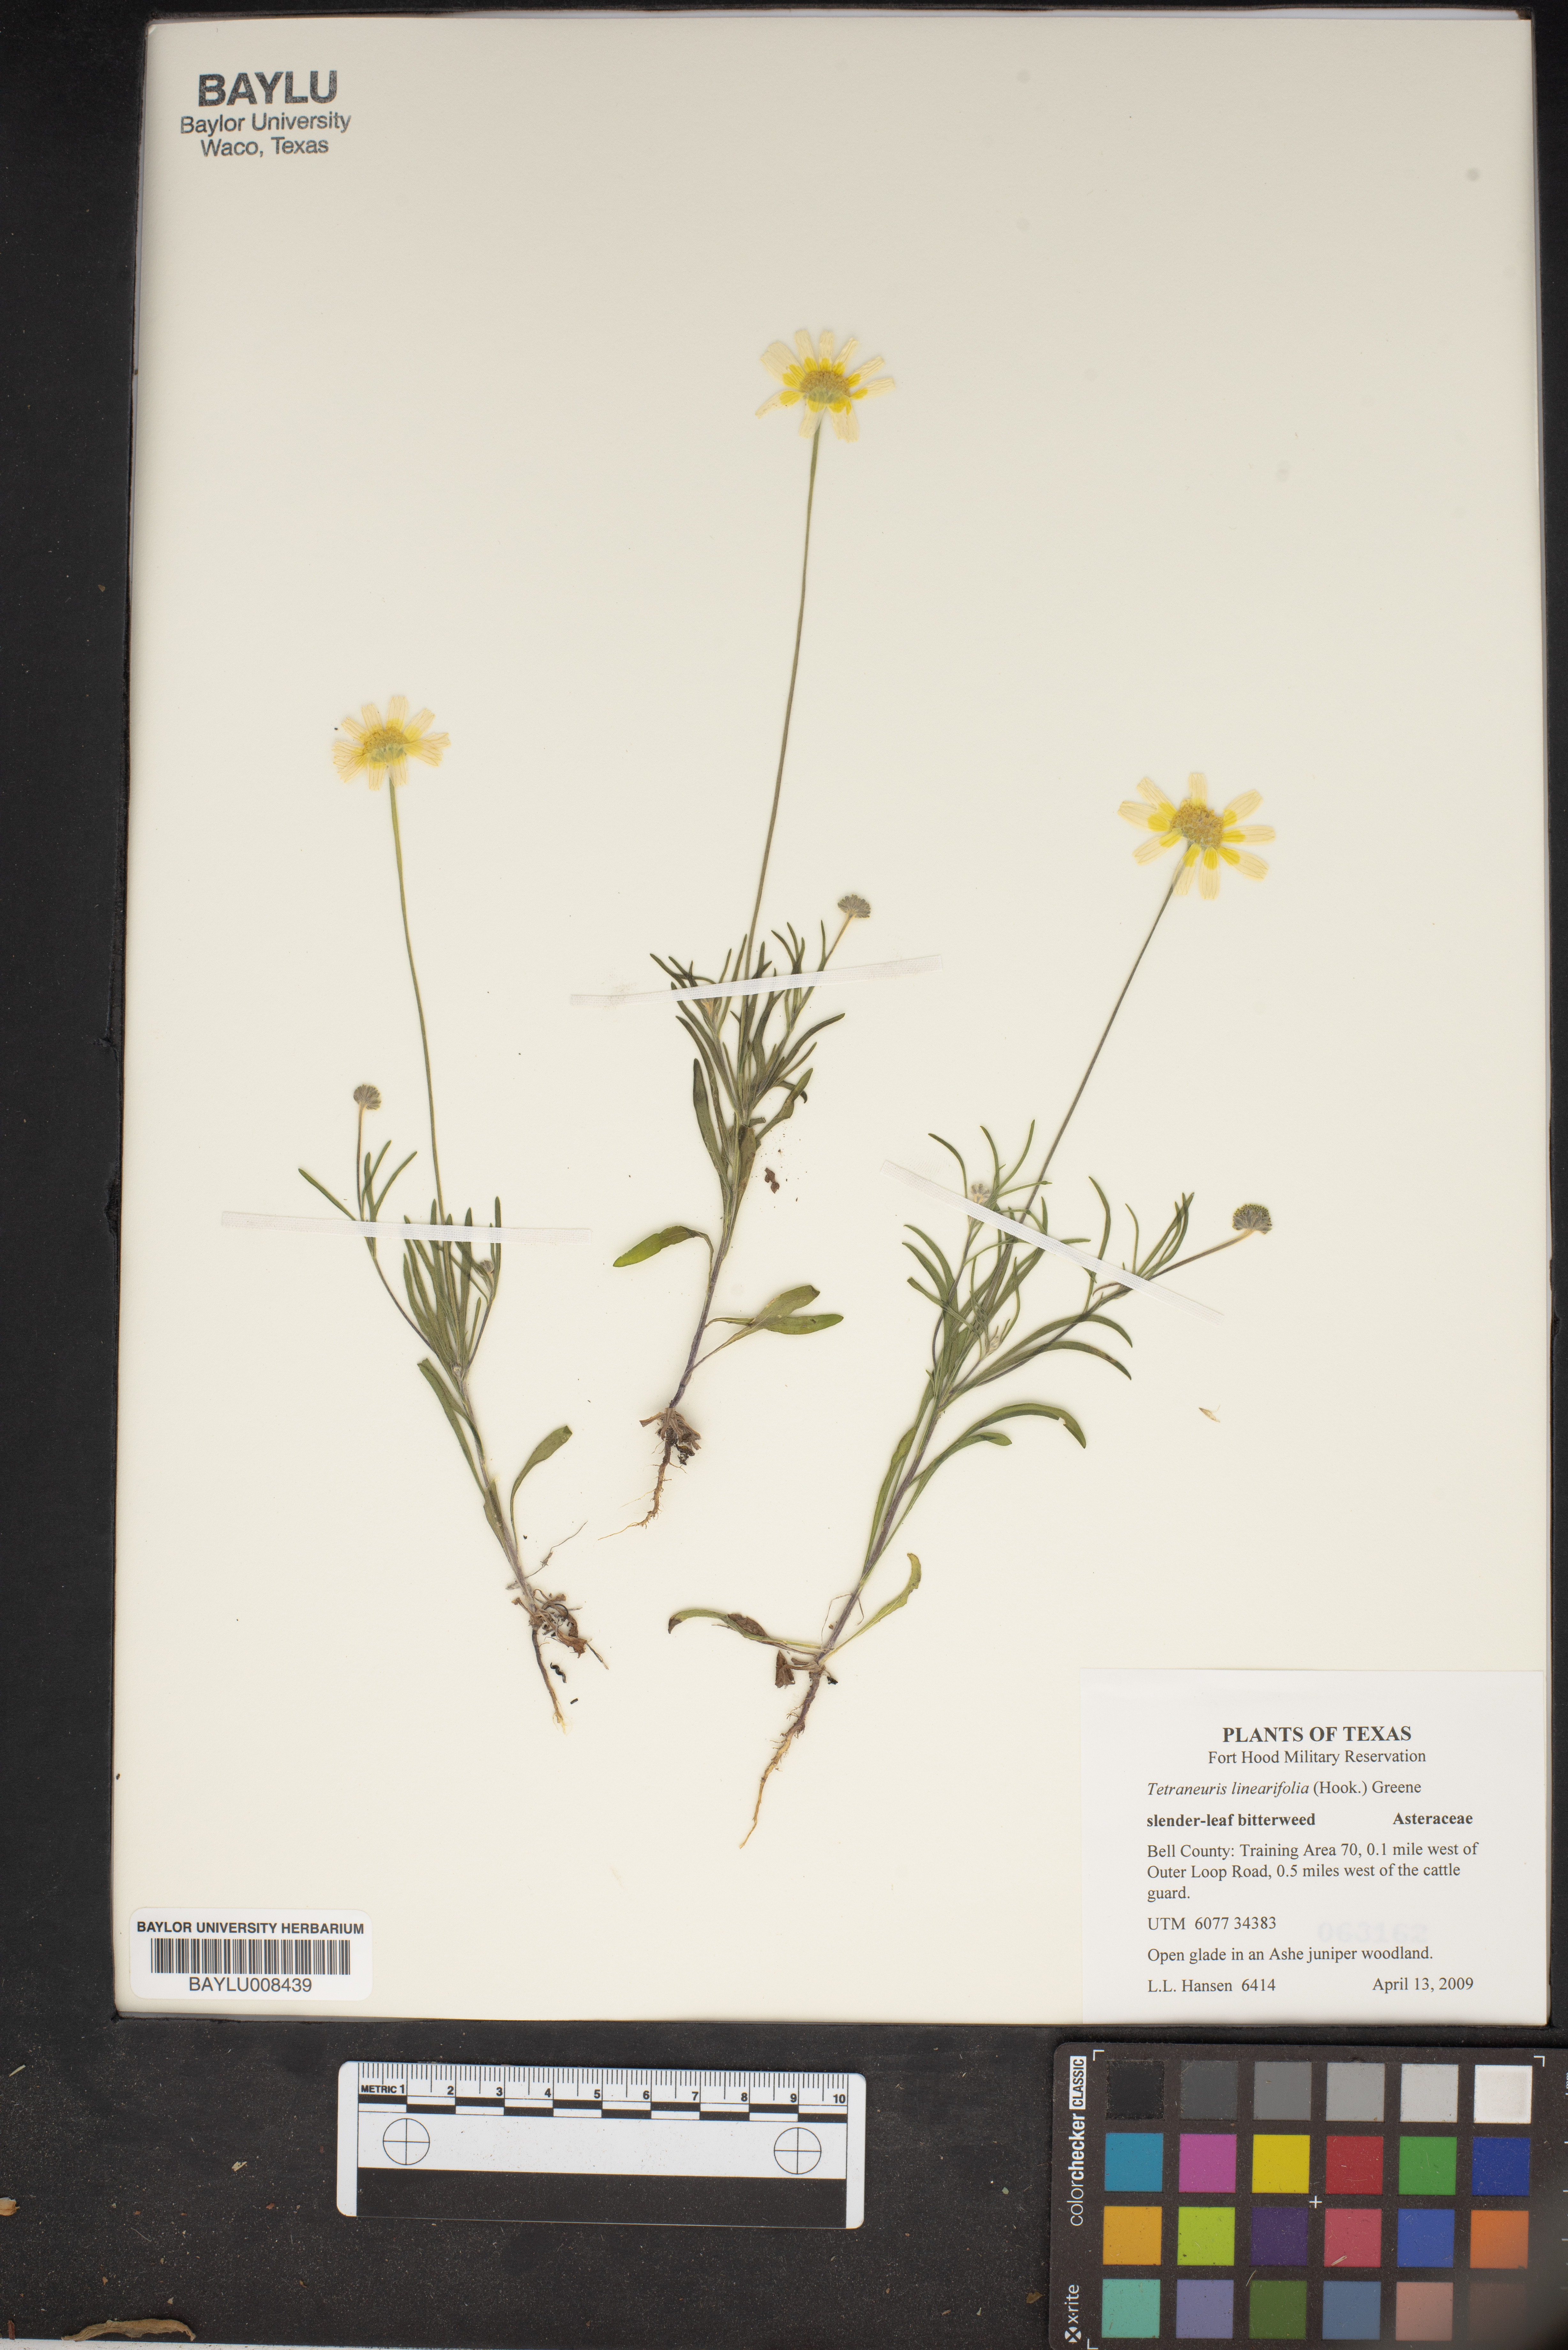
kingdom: Plantae
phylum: Tracheophyta
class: Magnoliopsida
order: Asterales
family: Asteraceae
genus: Tetraneuris
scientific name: Tetraneuris linearifolia
